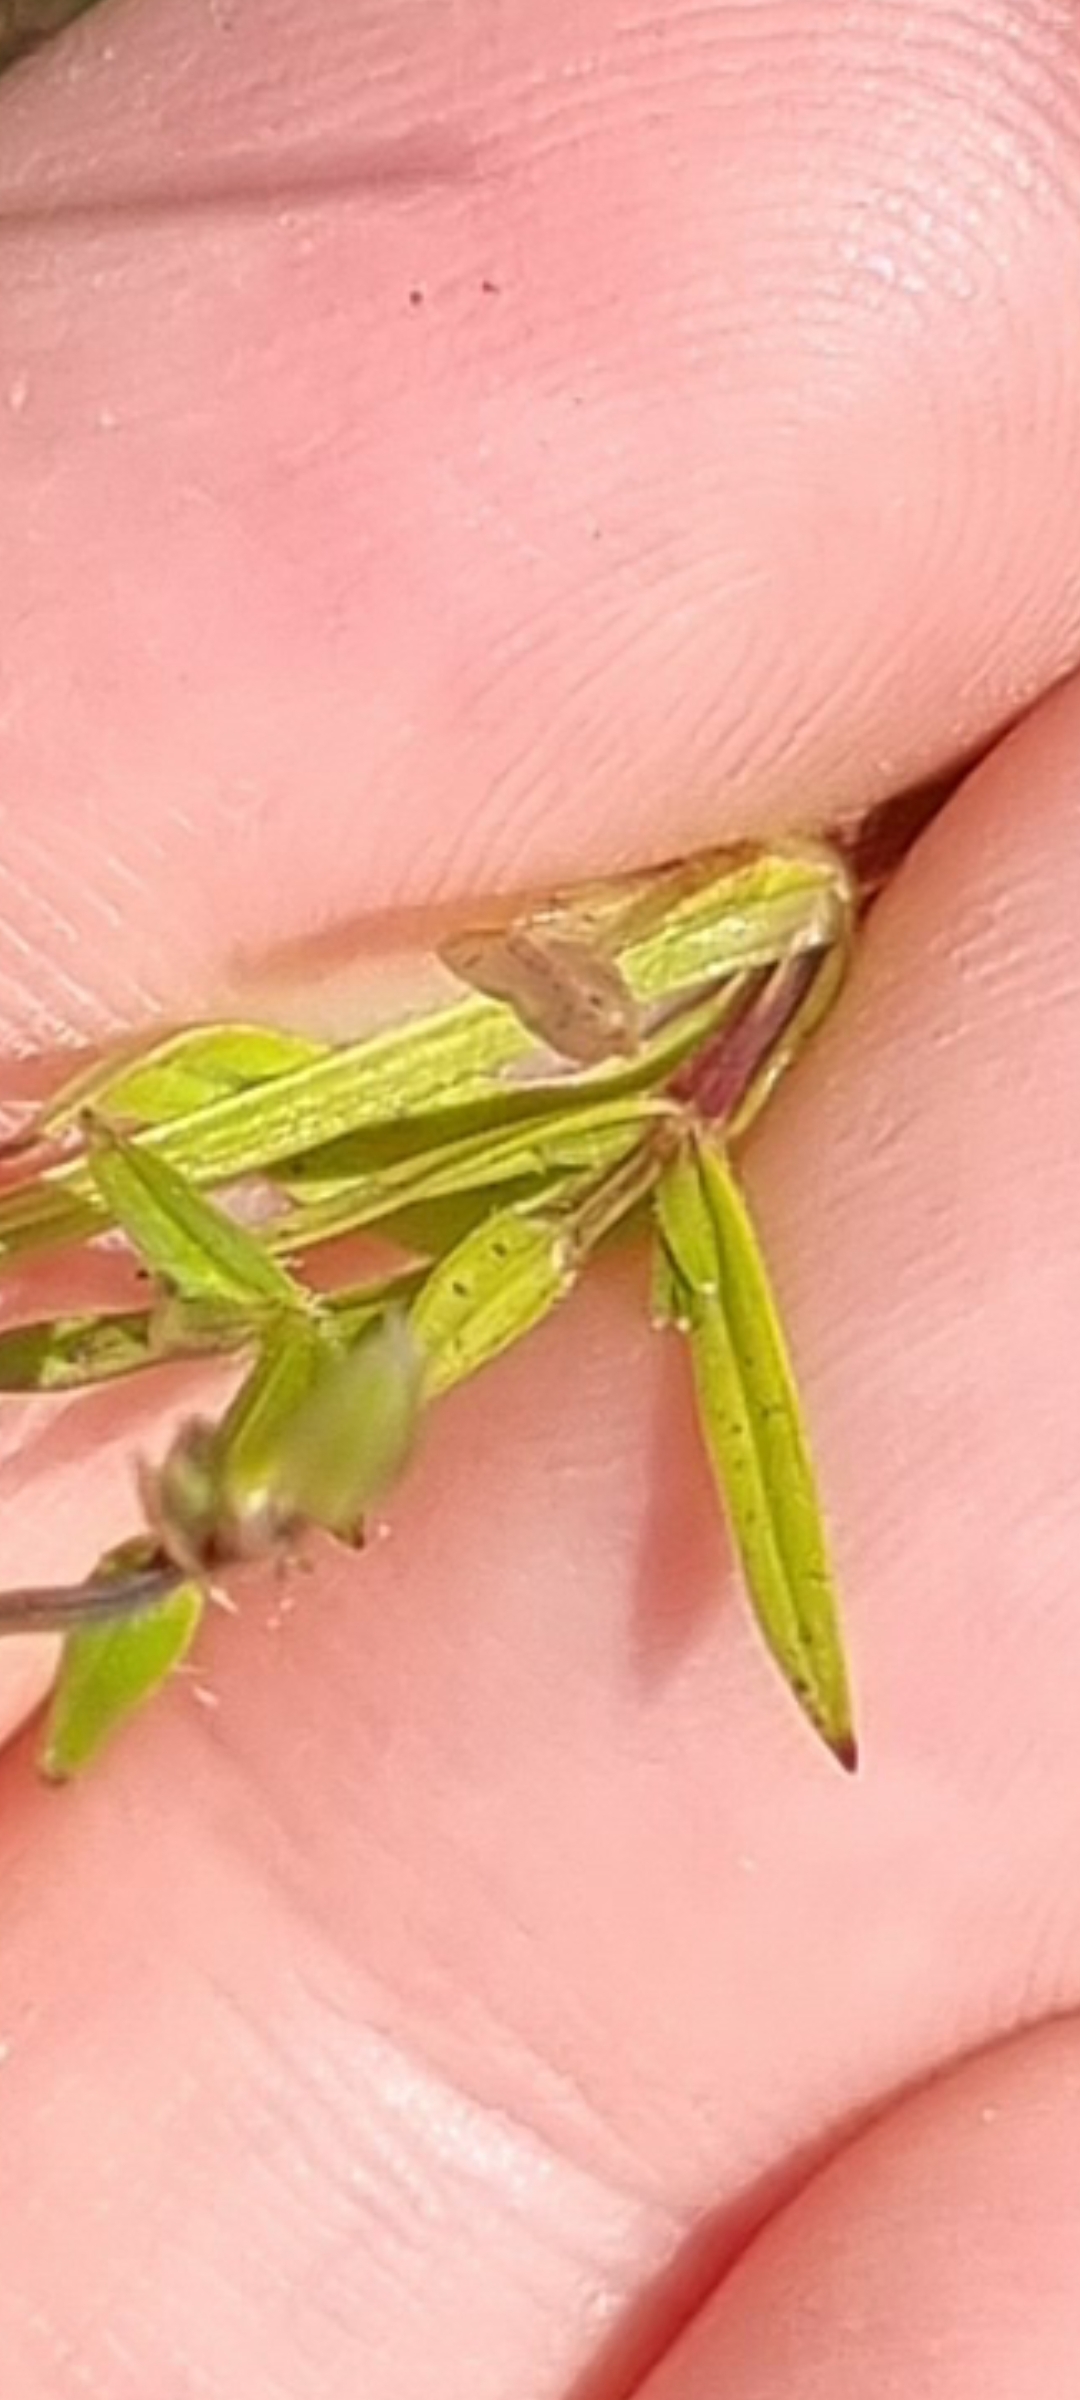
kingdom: Plantae
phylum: Tracheophyta
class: Magnoliopsida
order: Caryophyllales
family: Caryophyllaceae
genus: Stellaria
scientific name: Stellaria graminea
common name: Græsbladet fladstjerne
